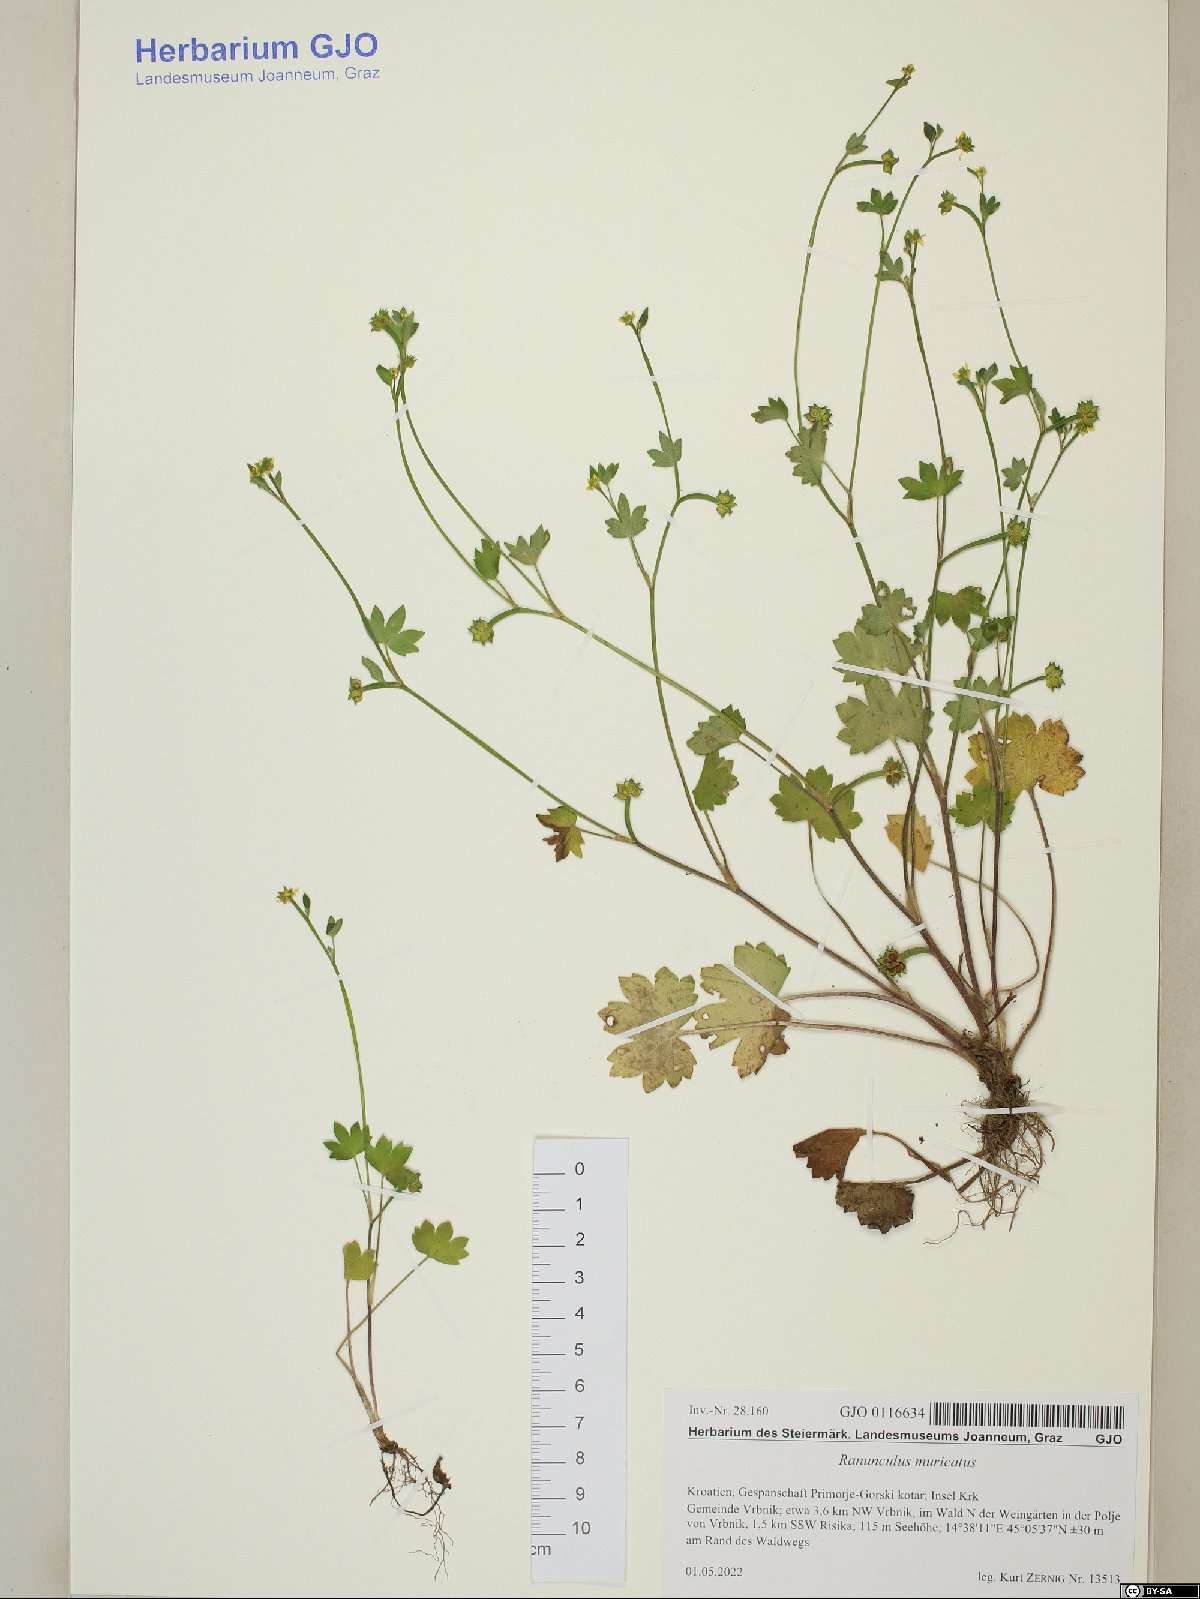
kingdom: Plantae
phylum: Tracheophyta
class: Magnoliopsida
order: Ranunculales
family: Ranunculaceae
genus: Ranunculus
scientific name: Ranunculus muricatus
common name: Rough-fruited buttercup
